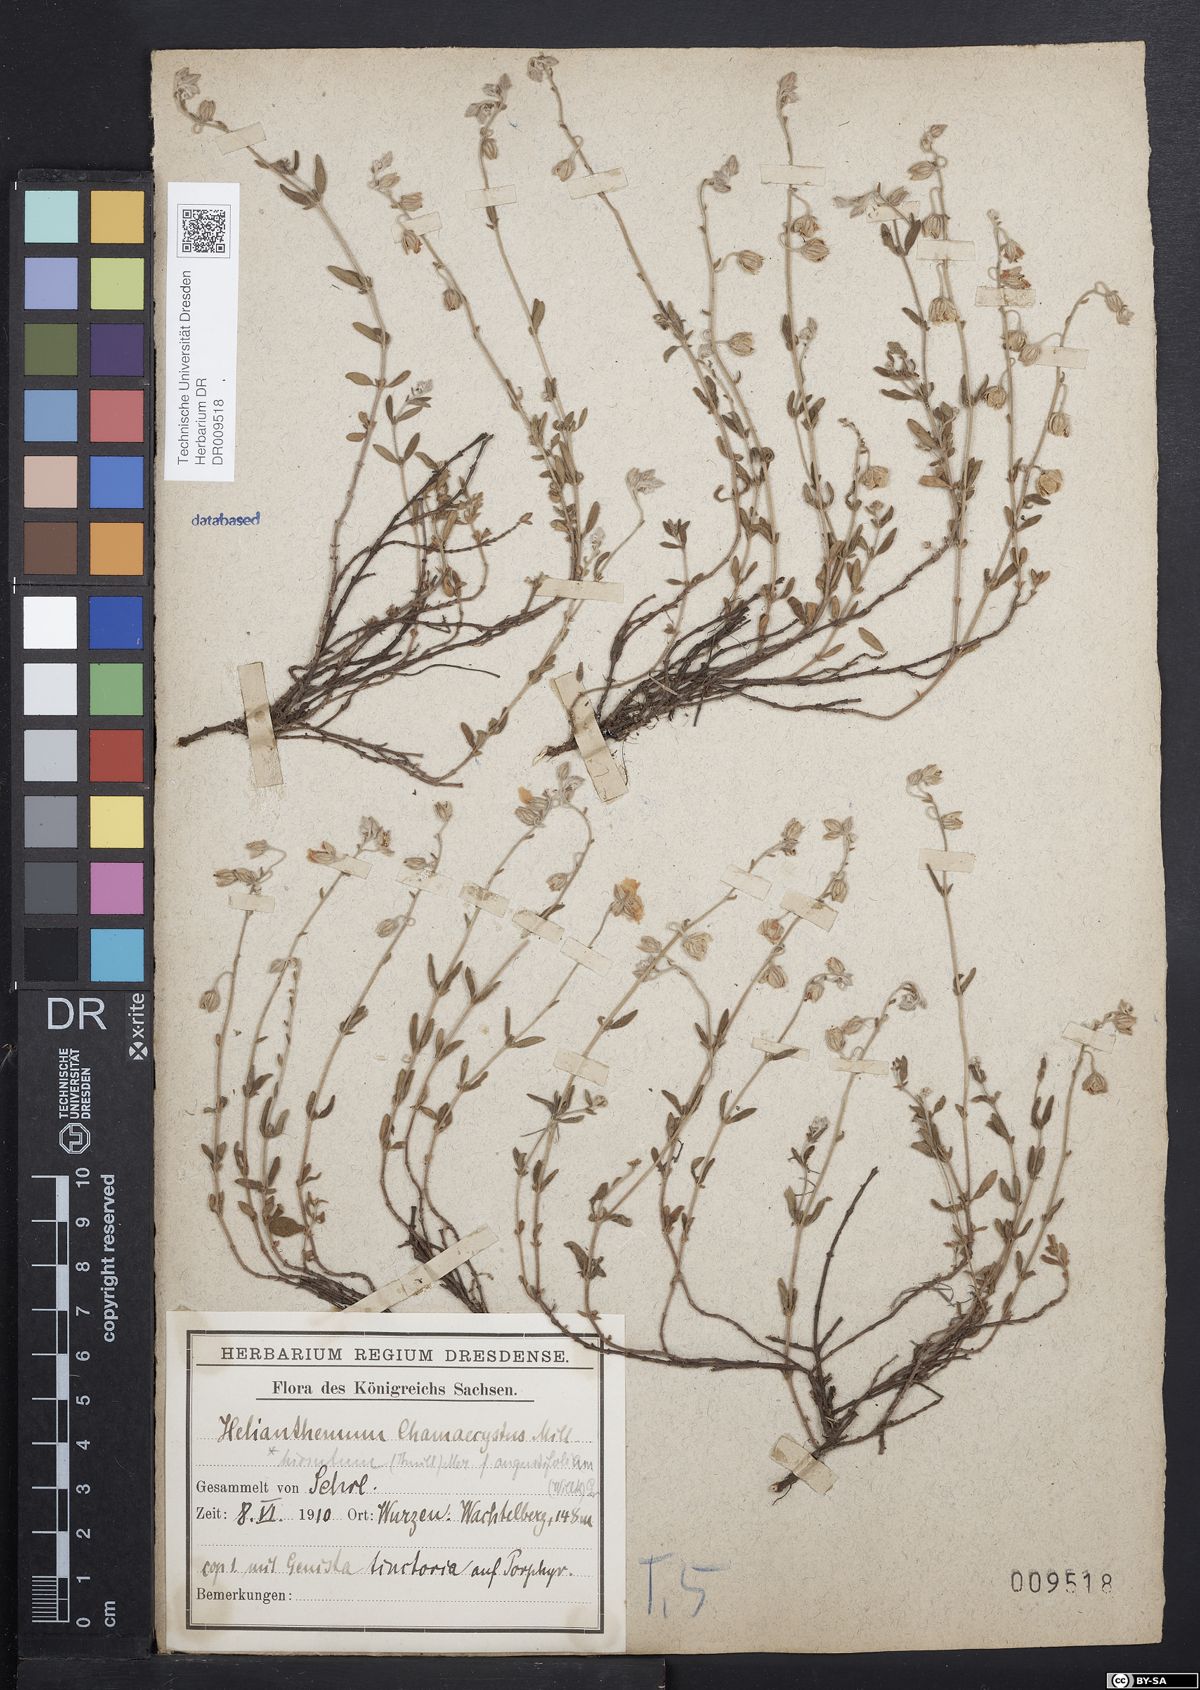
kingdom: Plantae
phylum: Tracheophyta
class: Magnoliopsida
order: Malvales
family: Cistaceae
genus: Helianthemum
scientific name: Helianthemum nummularium
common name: Common rock-rose
